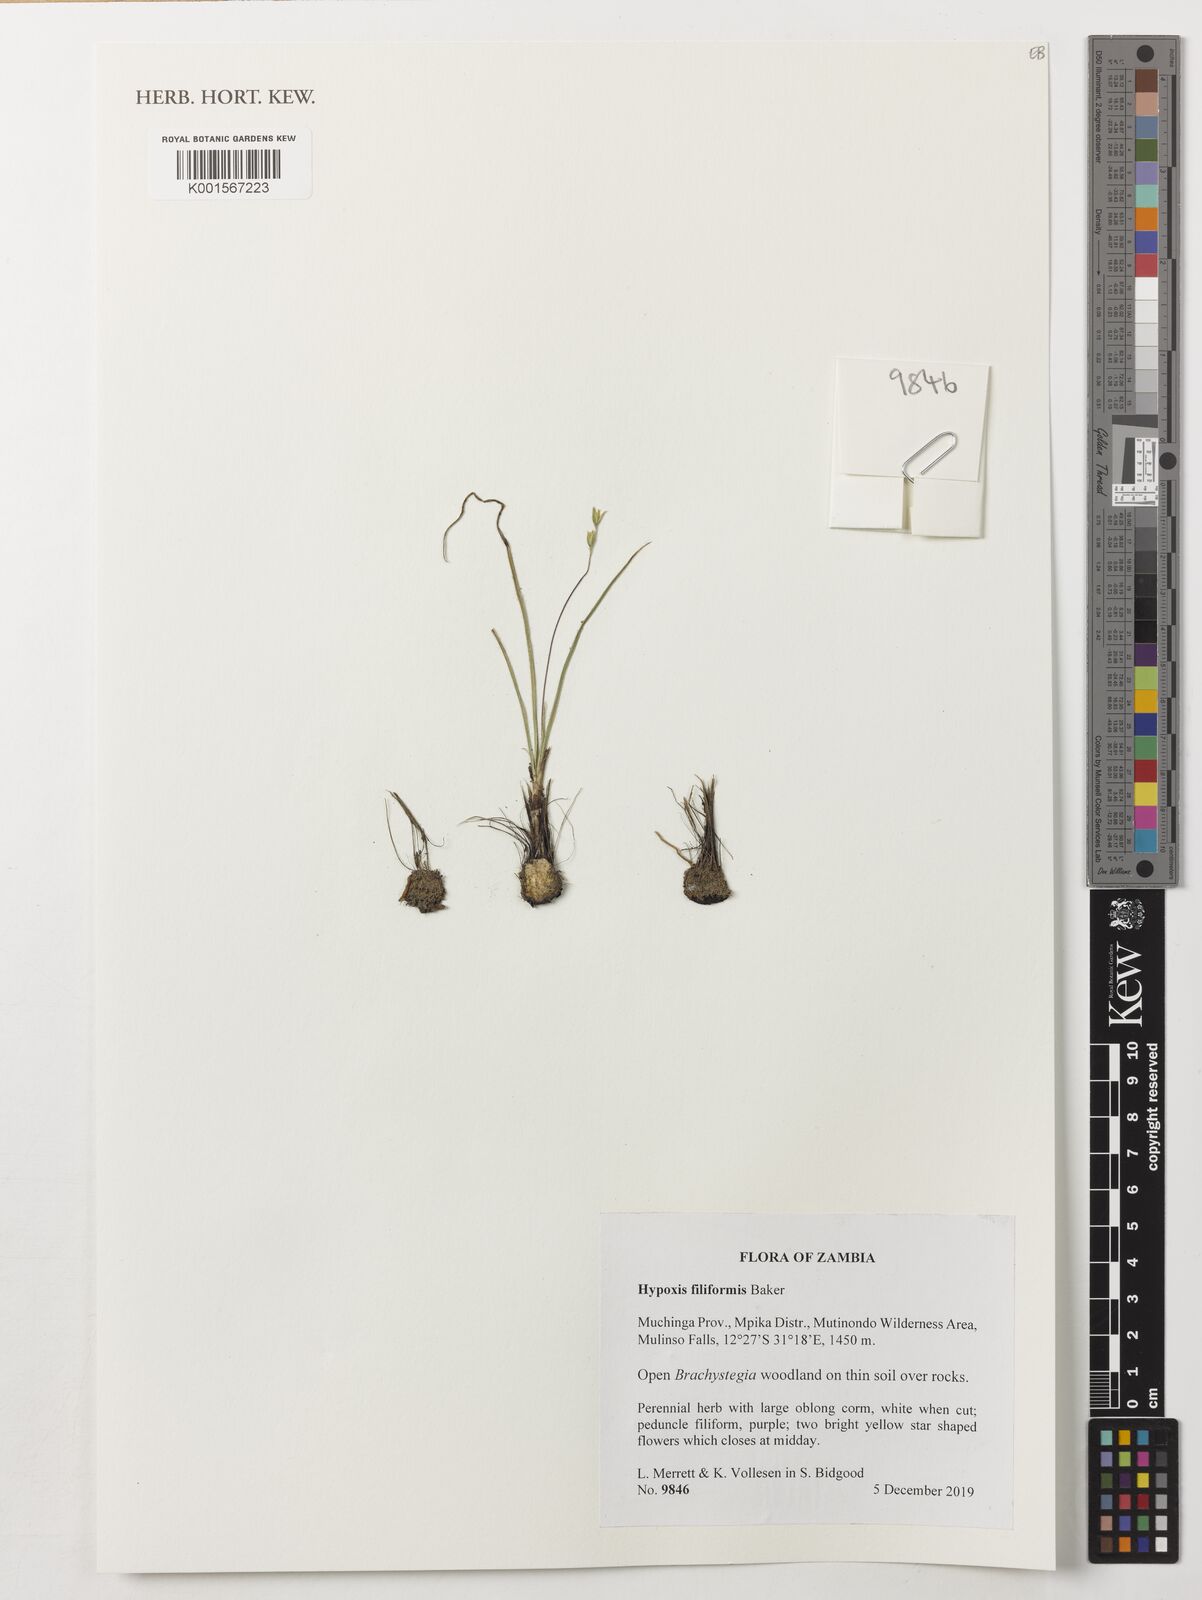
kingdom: Plantae
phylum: Tracheophyta
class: Liliopsida
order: Asparagales
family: Hypoxidaceae
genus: Hypoxis
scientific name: Hypoxis filiformis
